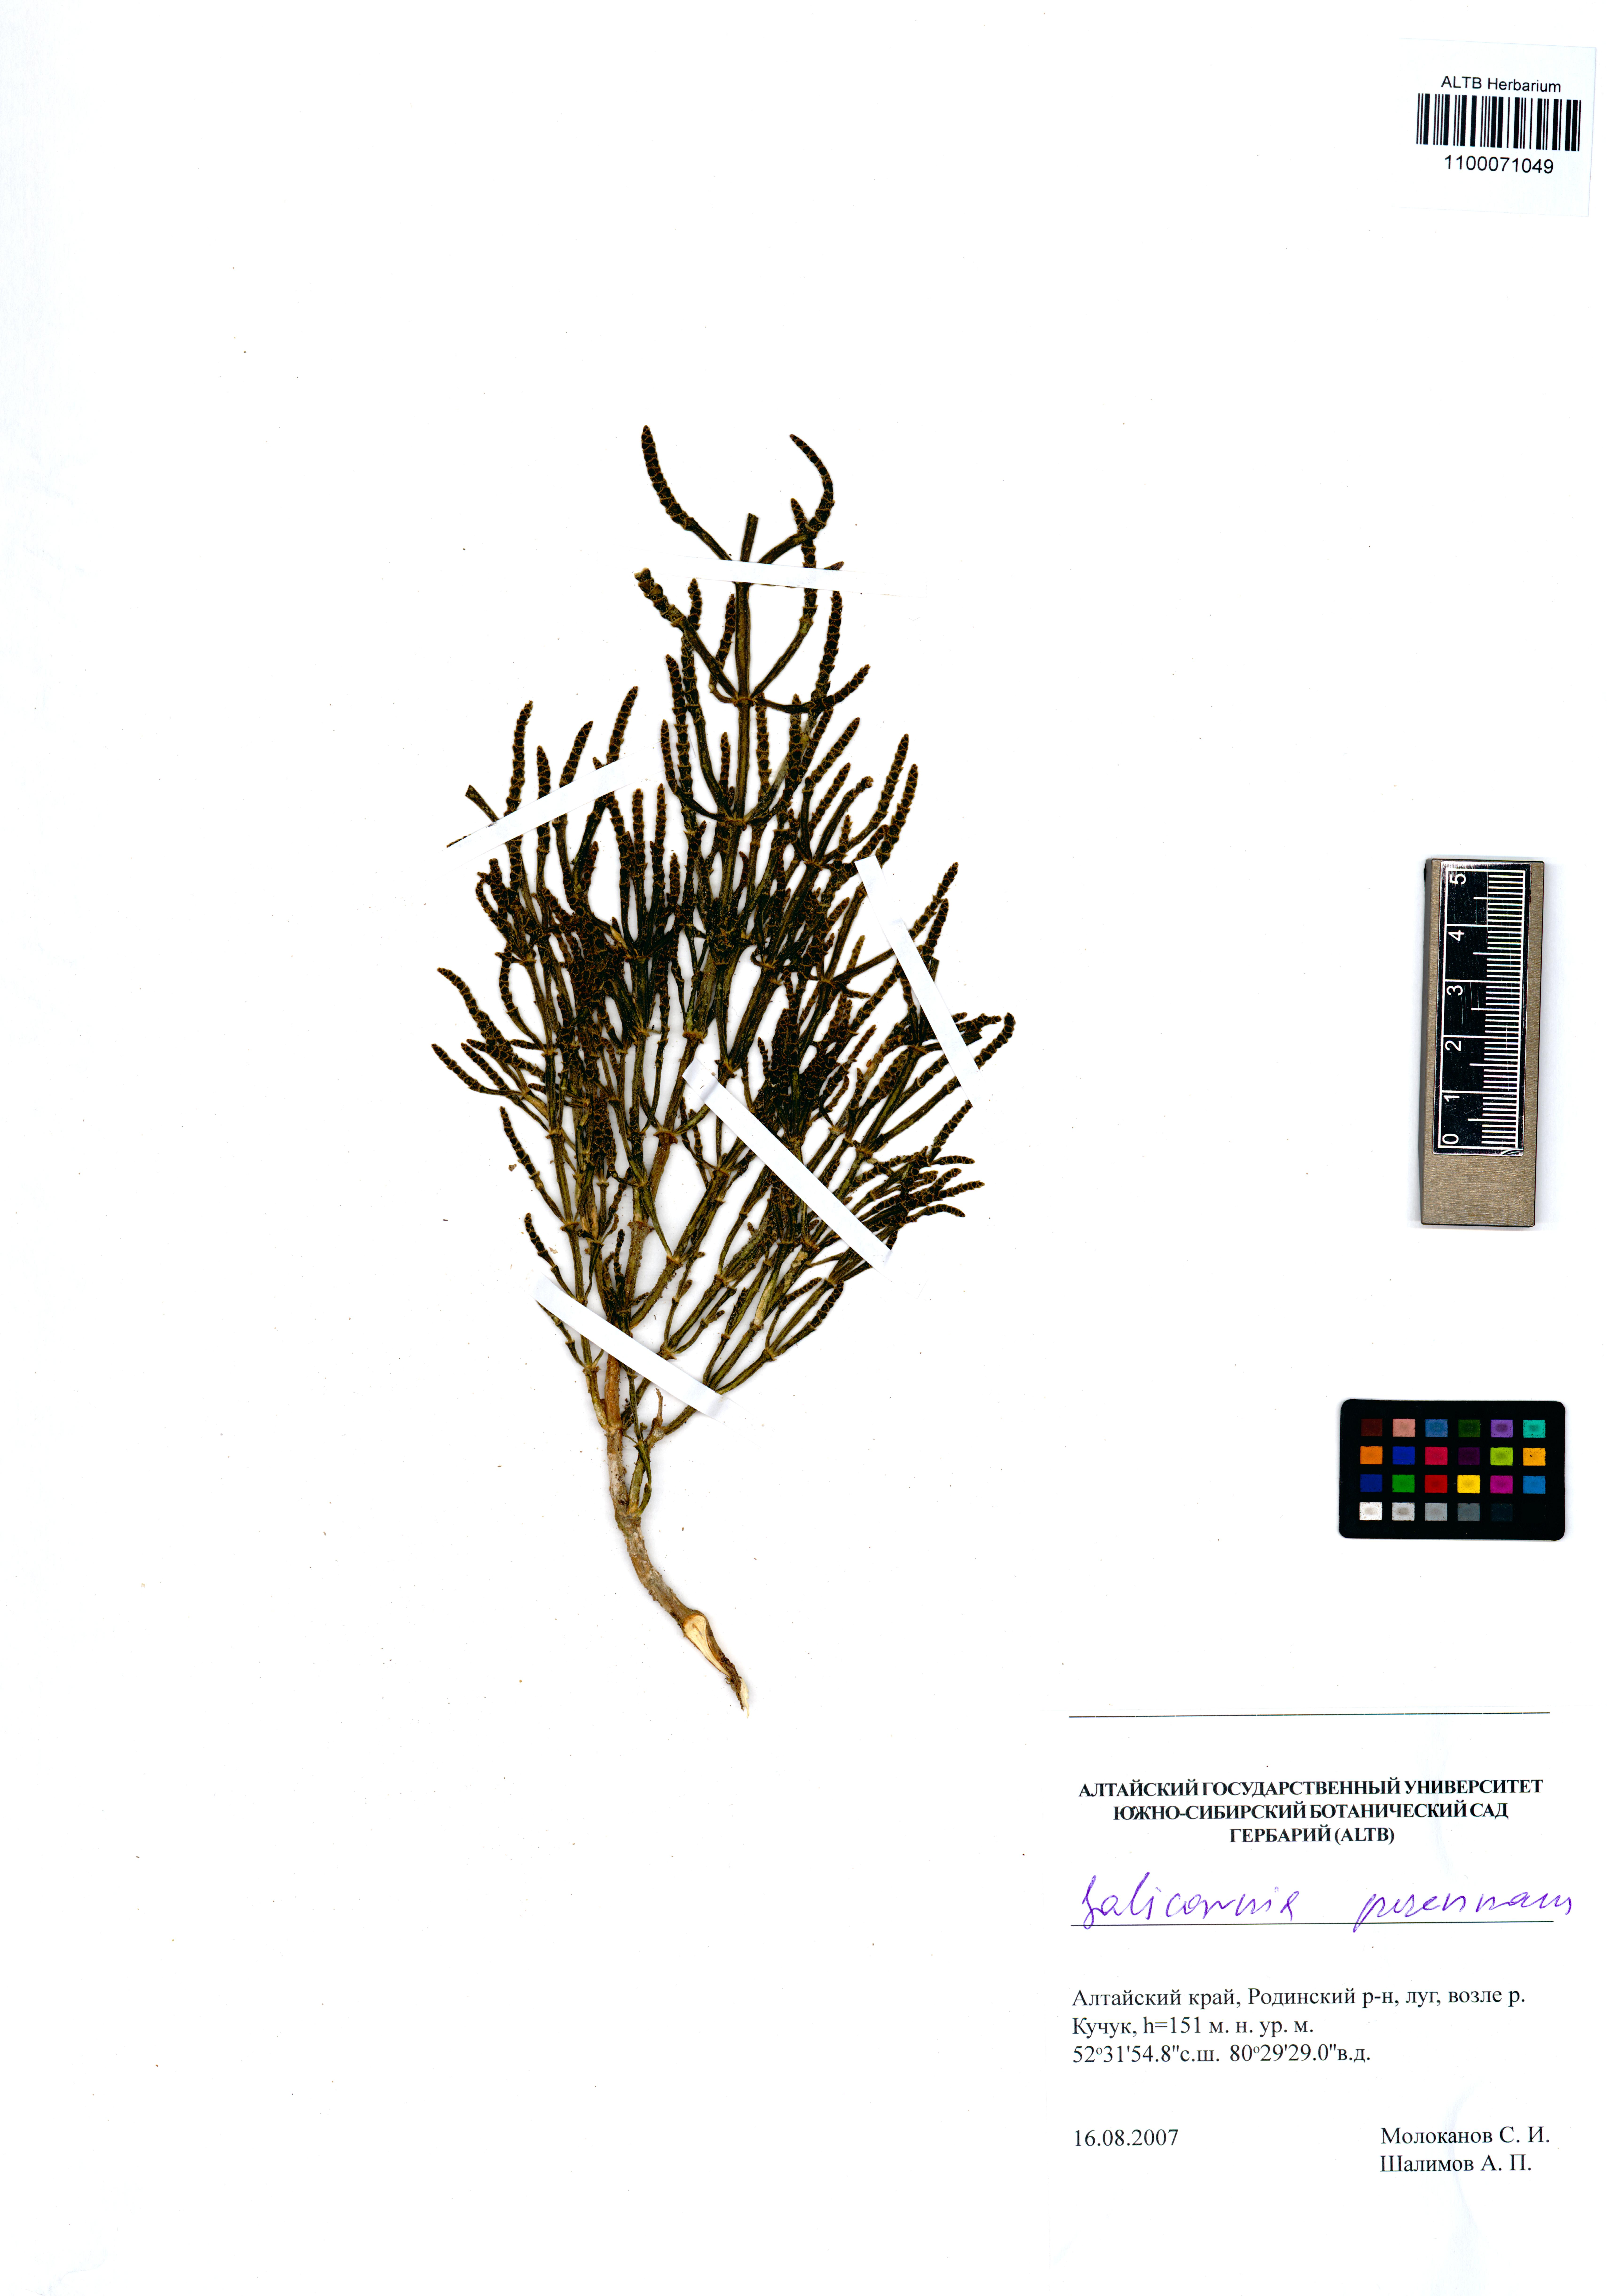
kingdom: Plantae
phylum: Tracheophyta
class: Magnoliopsida
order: Caryophyllales
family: Amaranthaceae
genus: Salicornia
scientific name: Salicornia perennans
